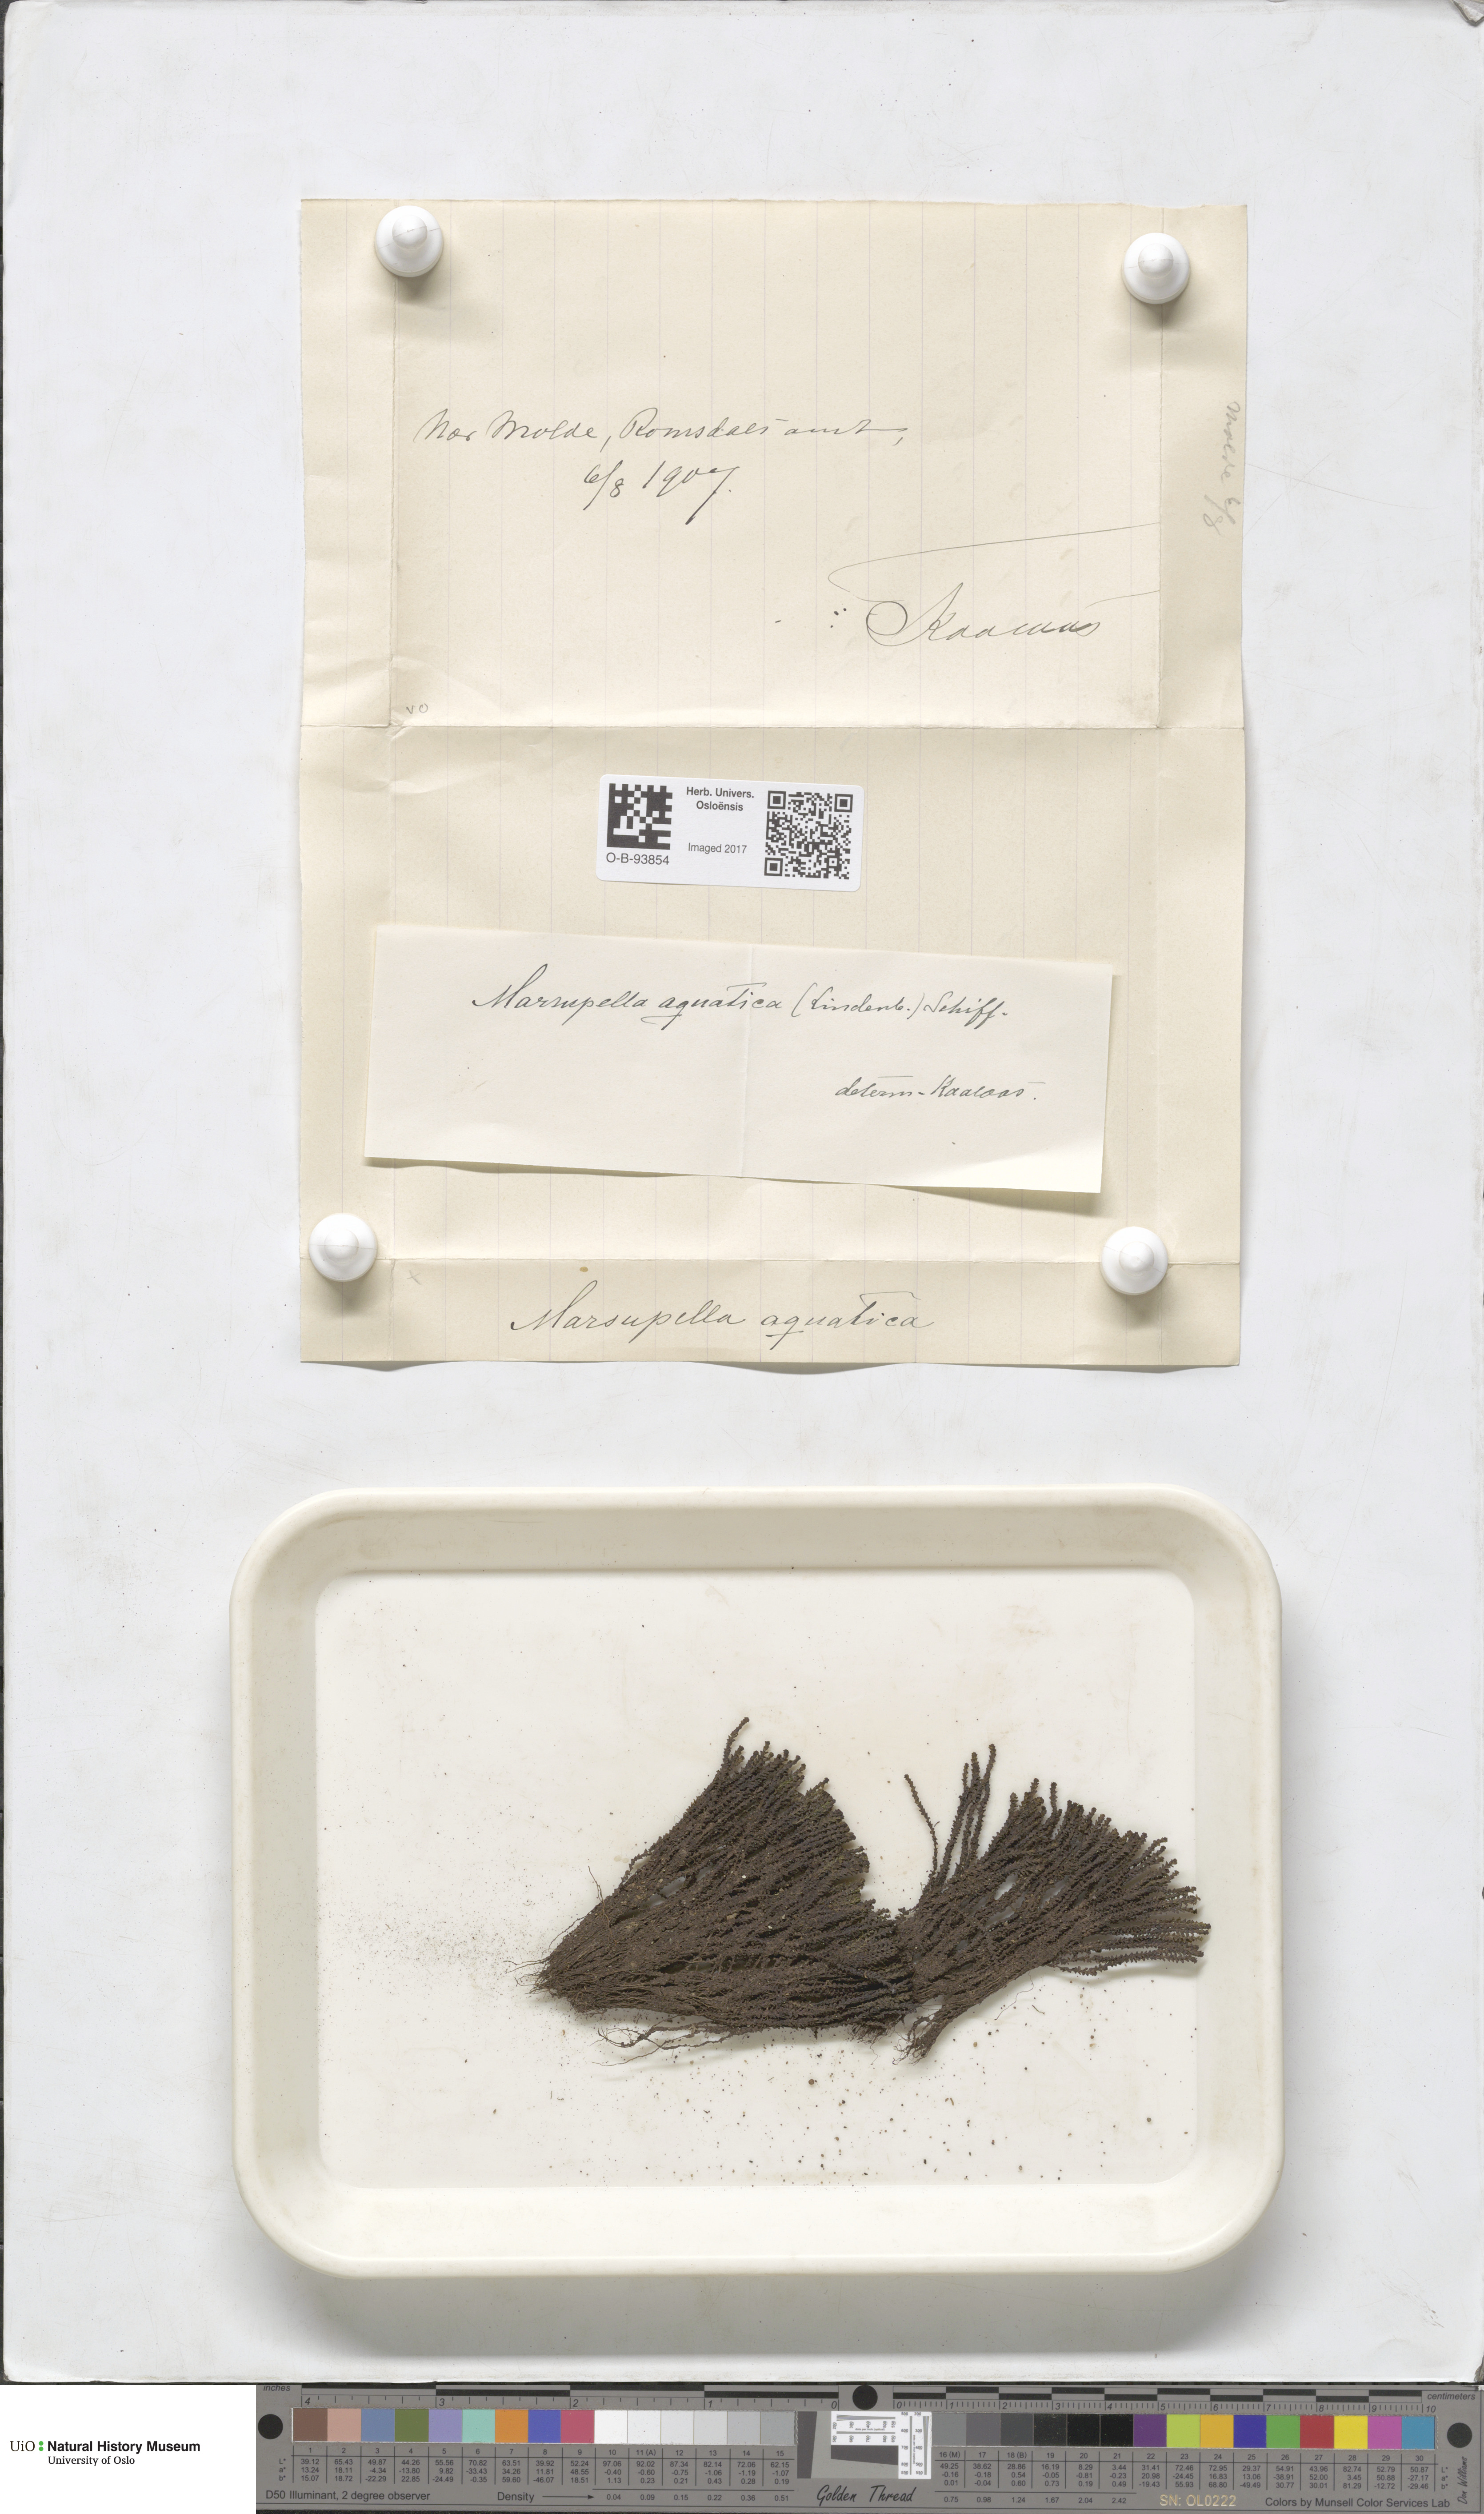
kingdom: Plantae
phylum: Marchantiophyta
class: Jungermanniopsida
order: Jungermanniales
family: Gymnomitriaceae
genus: Marsupella
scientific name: Marsupella emarginata
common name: Notched rustwort
